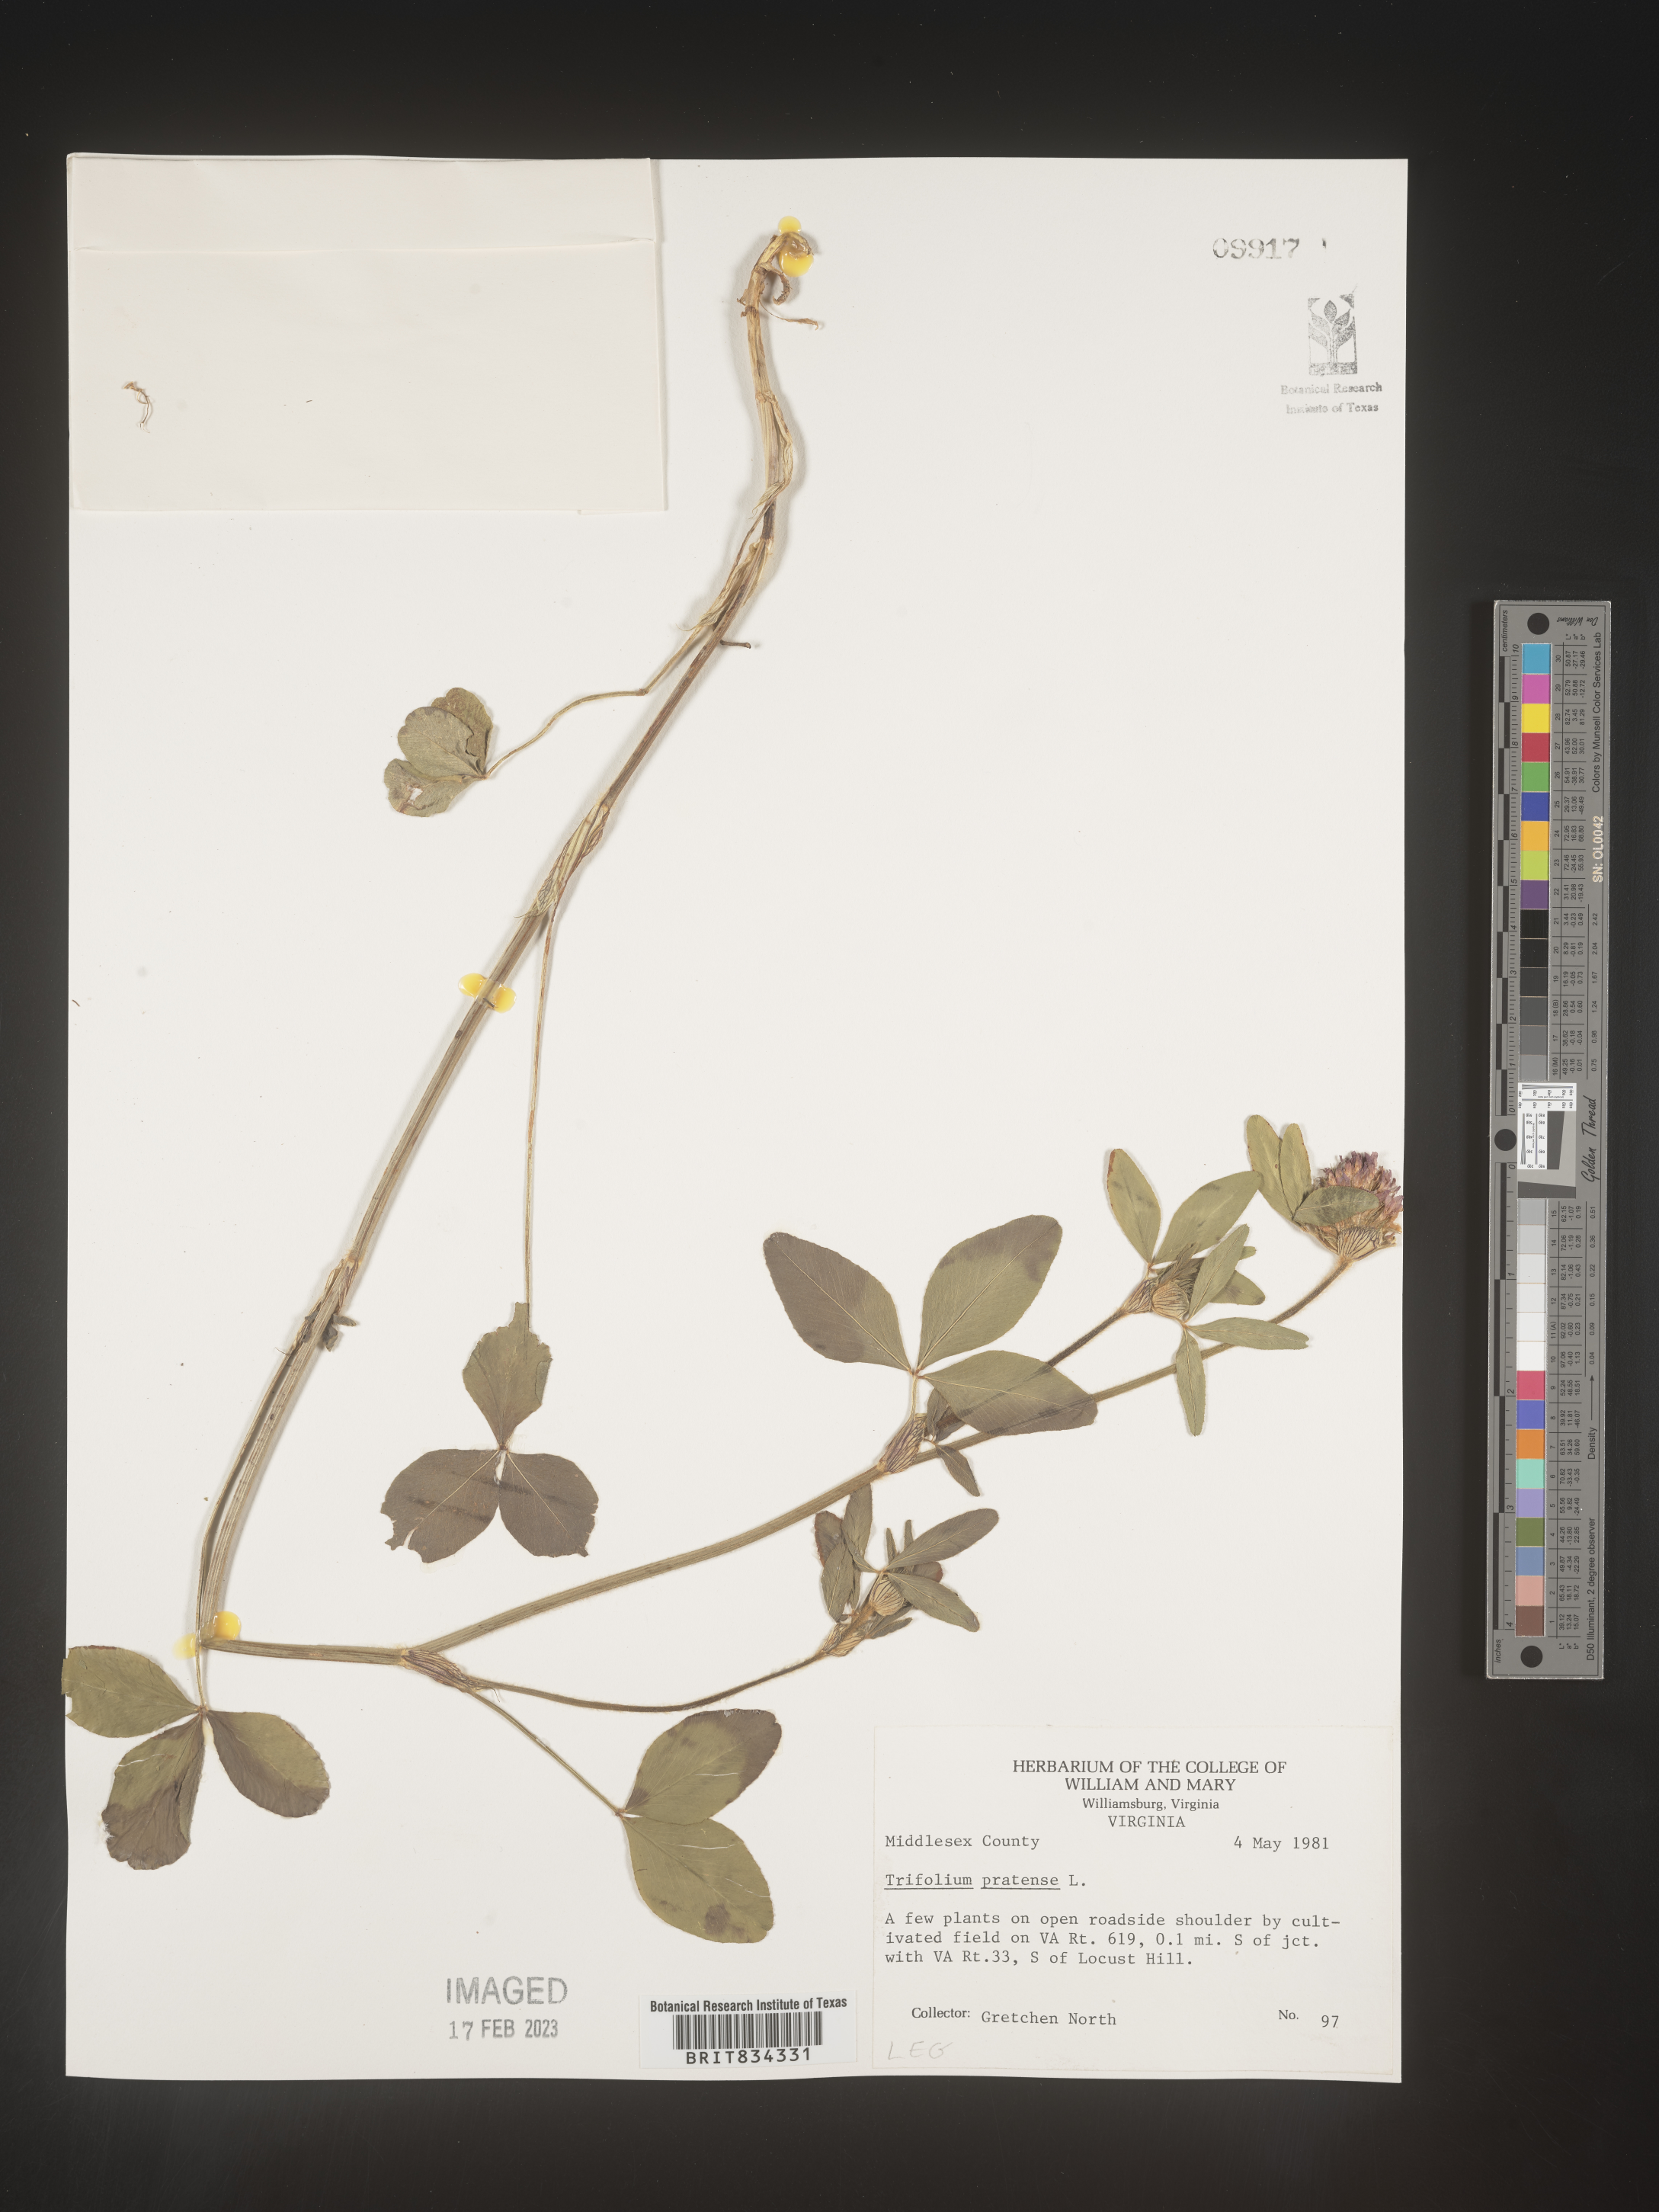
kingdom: Plantae
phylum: Tracheophyta
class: Magnoliopsida
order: Fabales
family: Fabaceae
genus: Trifolium
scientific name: Trifolium pratense
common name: Red clover
